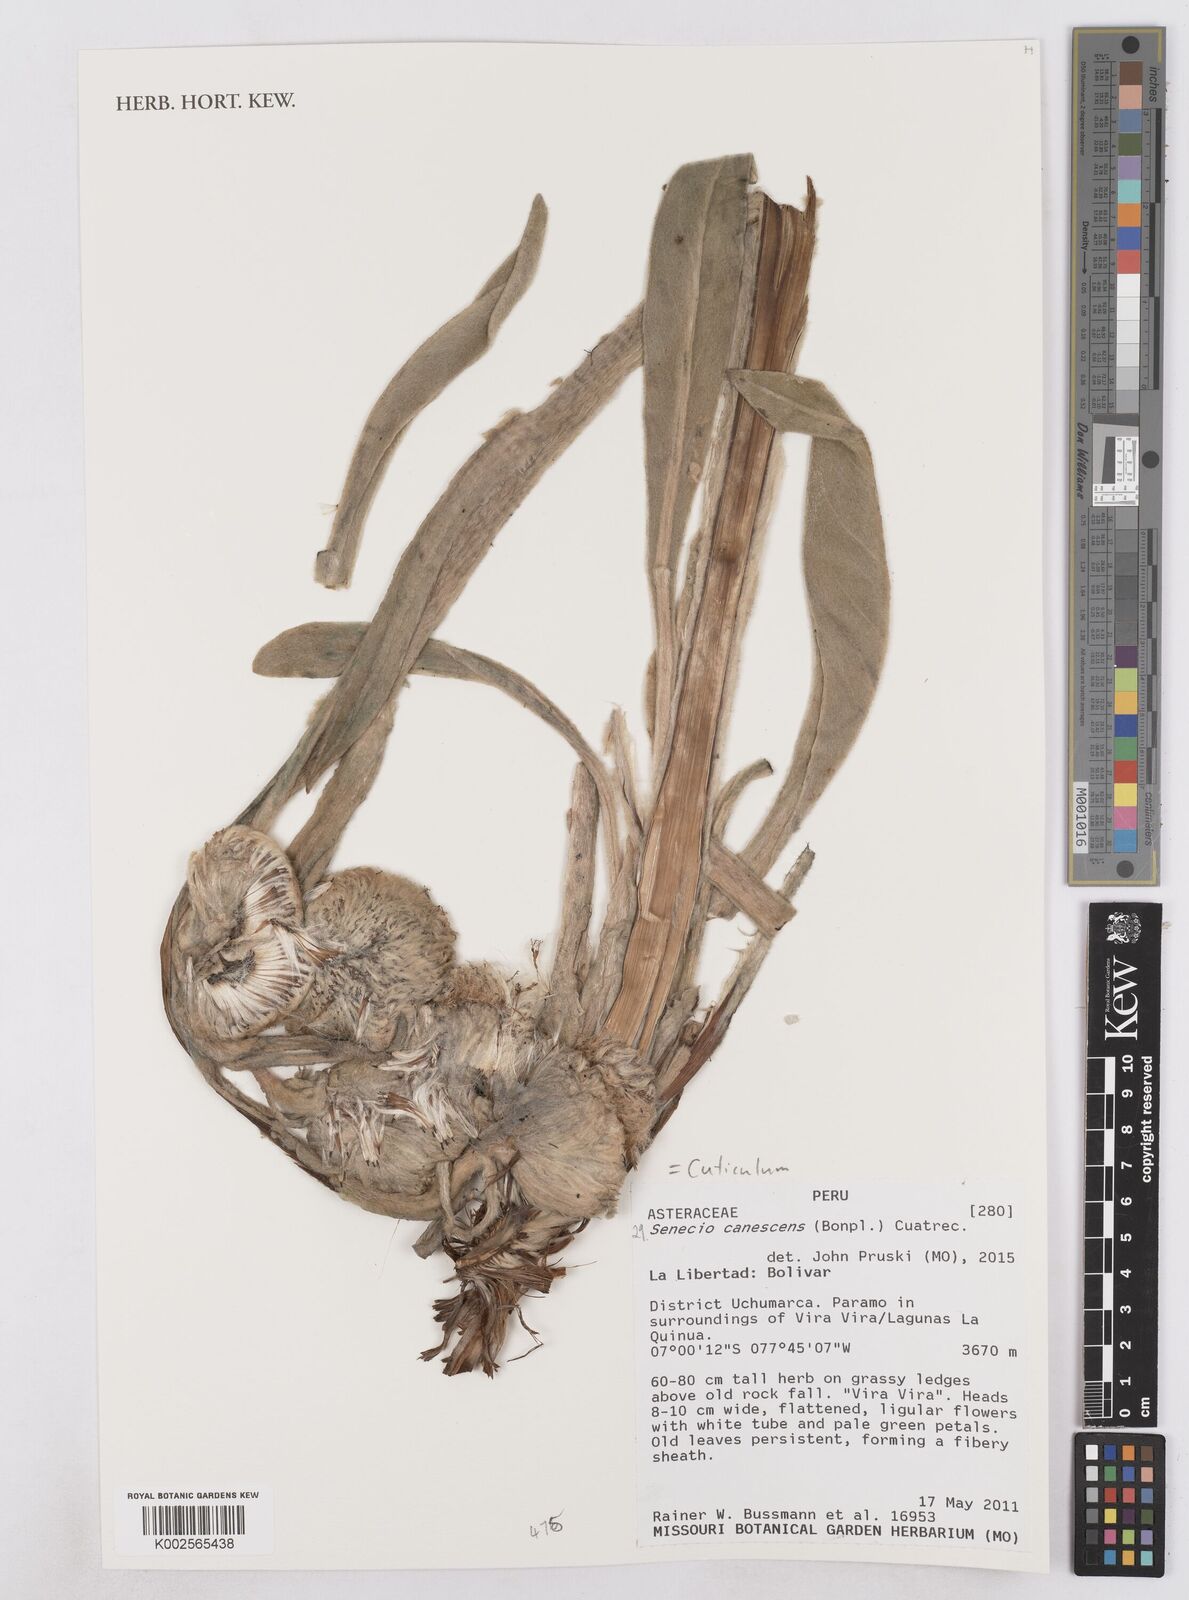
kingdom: Plantae
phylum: Tracheophyta
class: Magnoliopsida
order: Asterales
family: Asteraceae
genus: Culcitium
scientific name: Culcitium canescens
